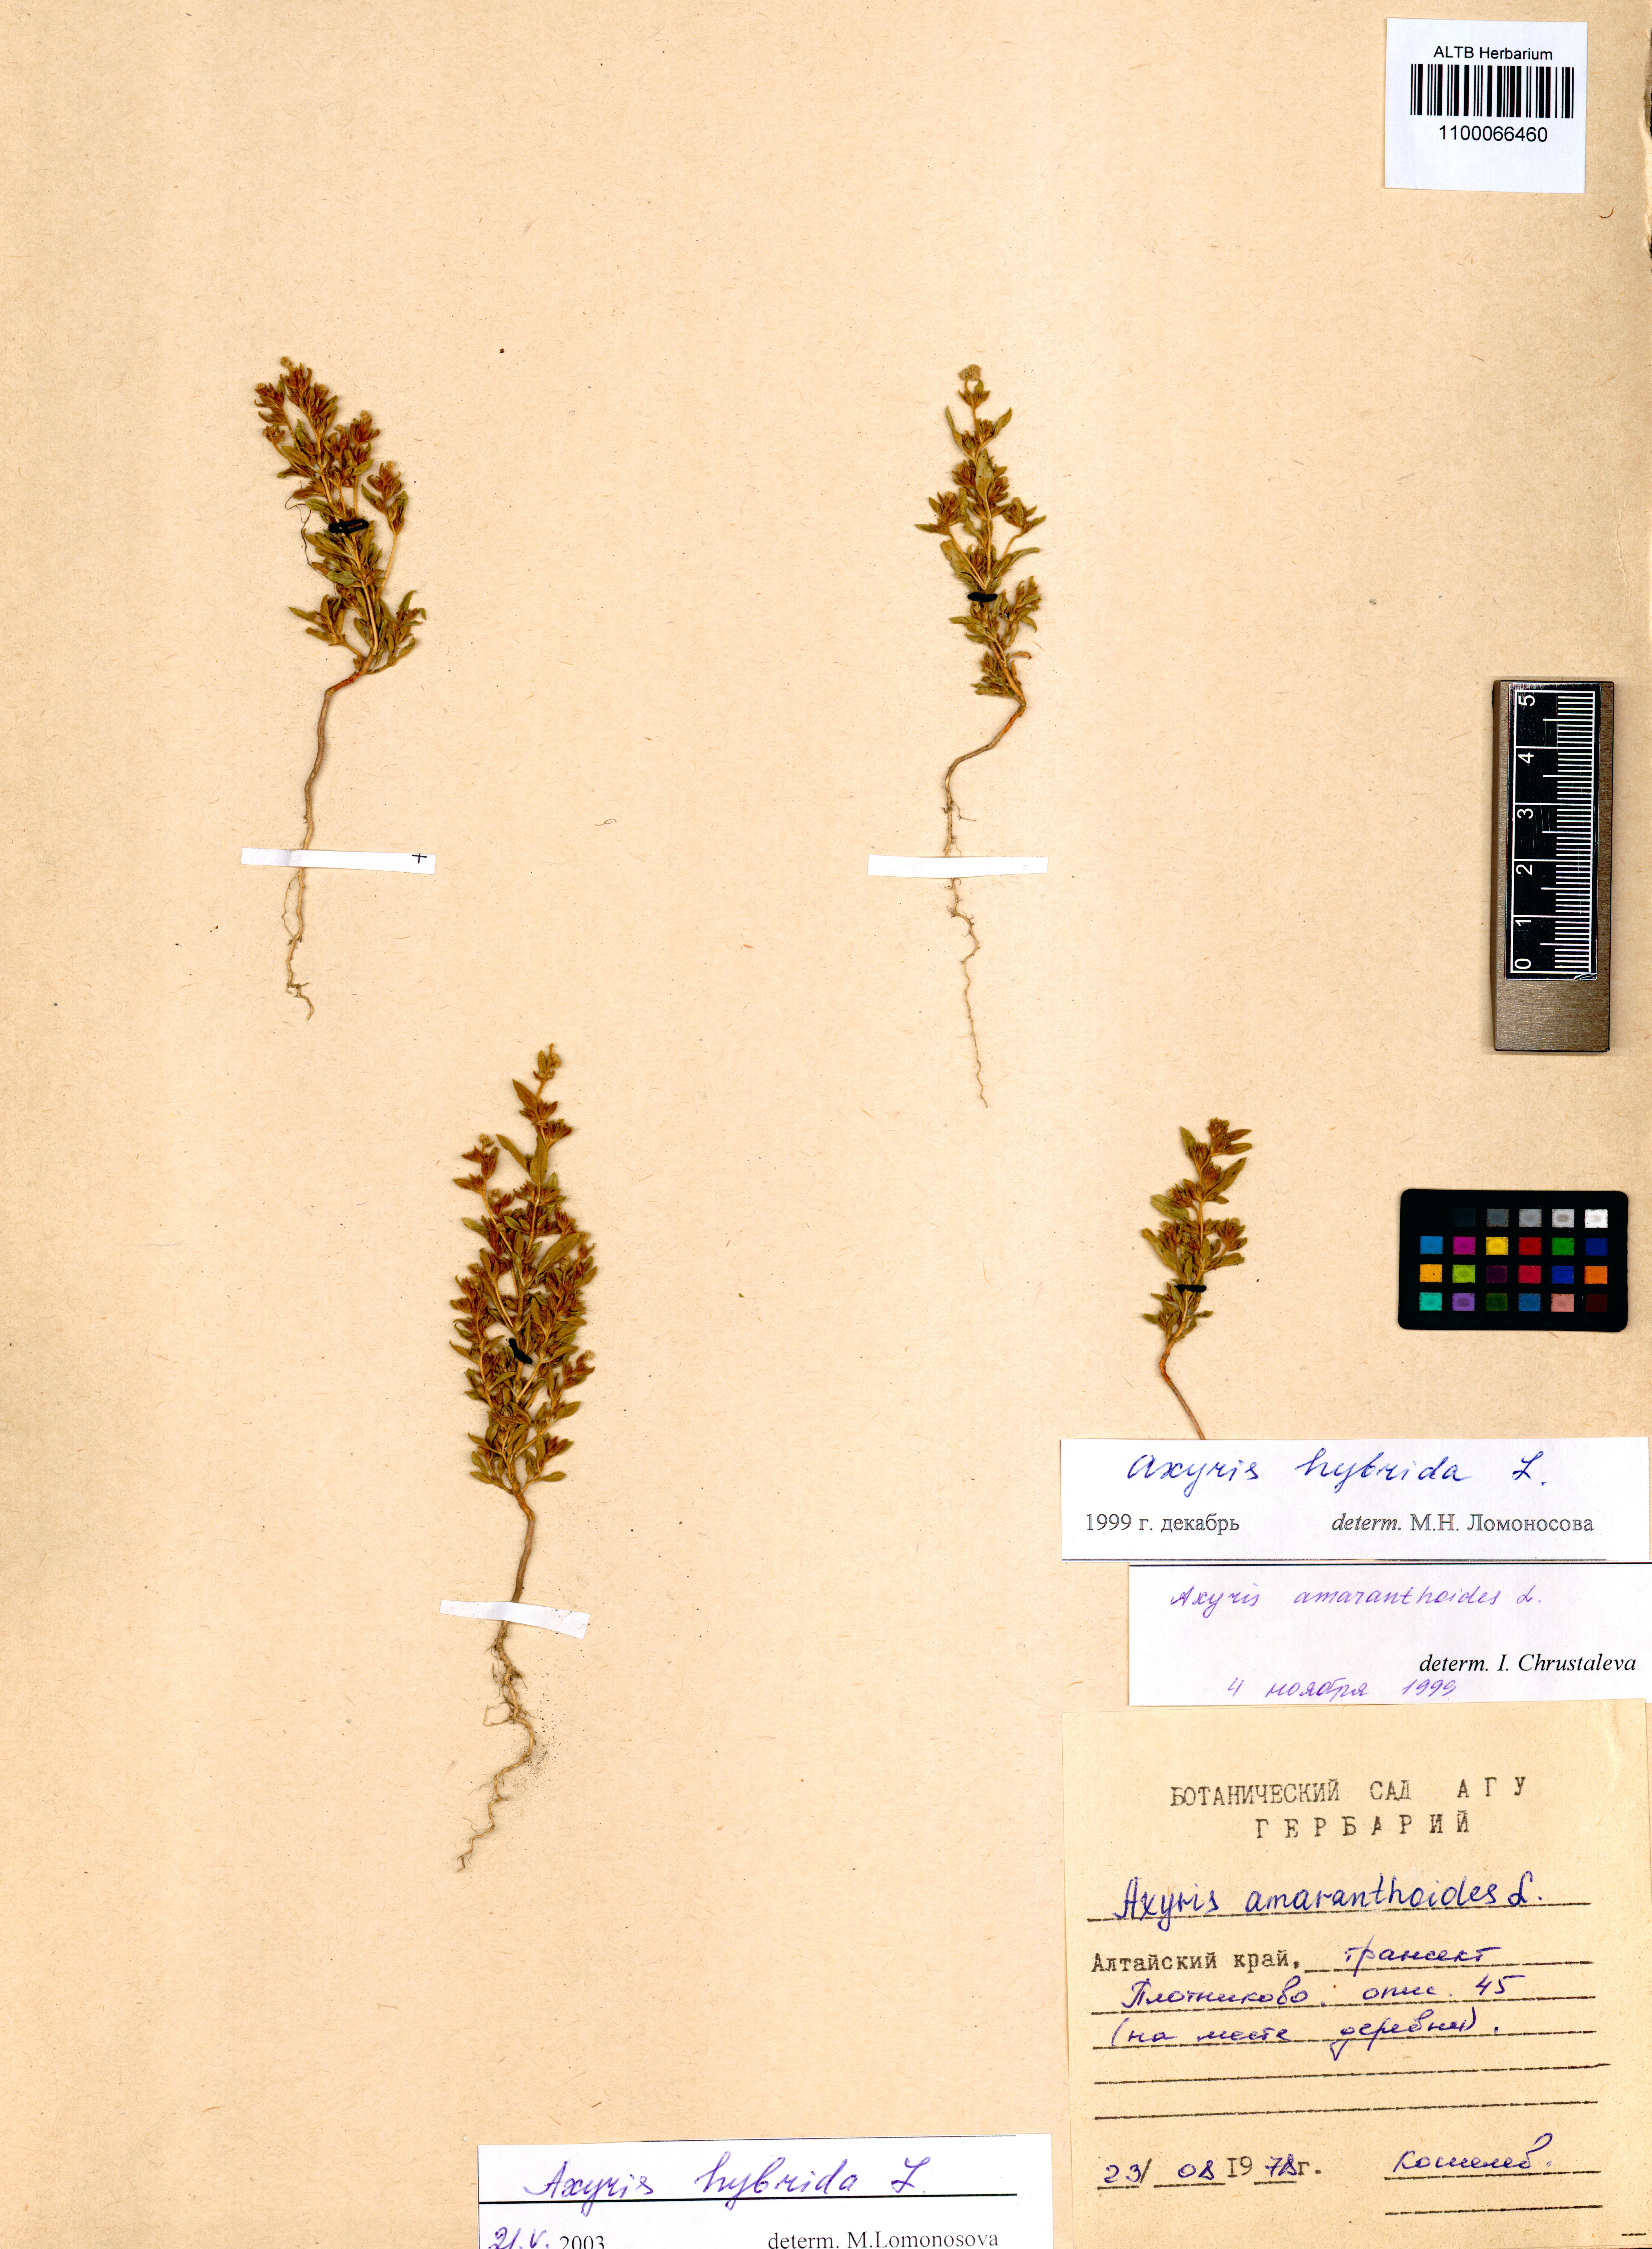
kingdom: Plantae
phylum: Tracheophyta
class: Magnoliopsida
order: Caryophyllales
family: Amaranthaceae
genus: Axyris
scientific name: Axyris hybrida
